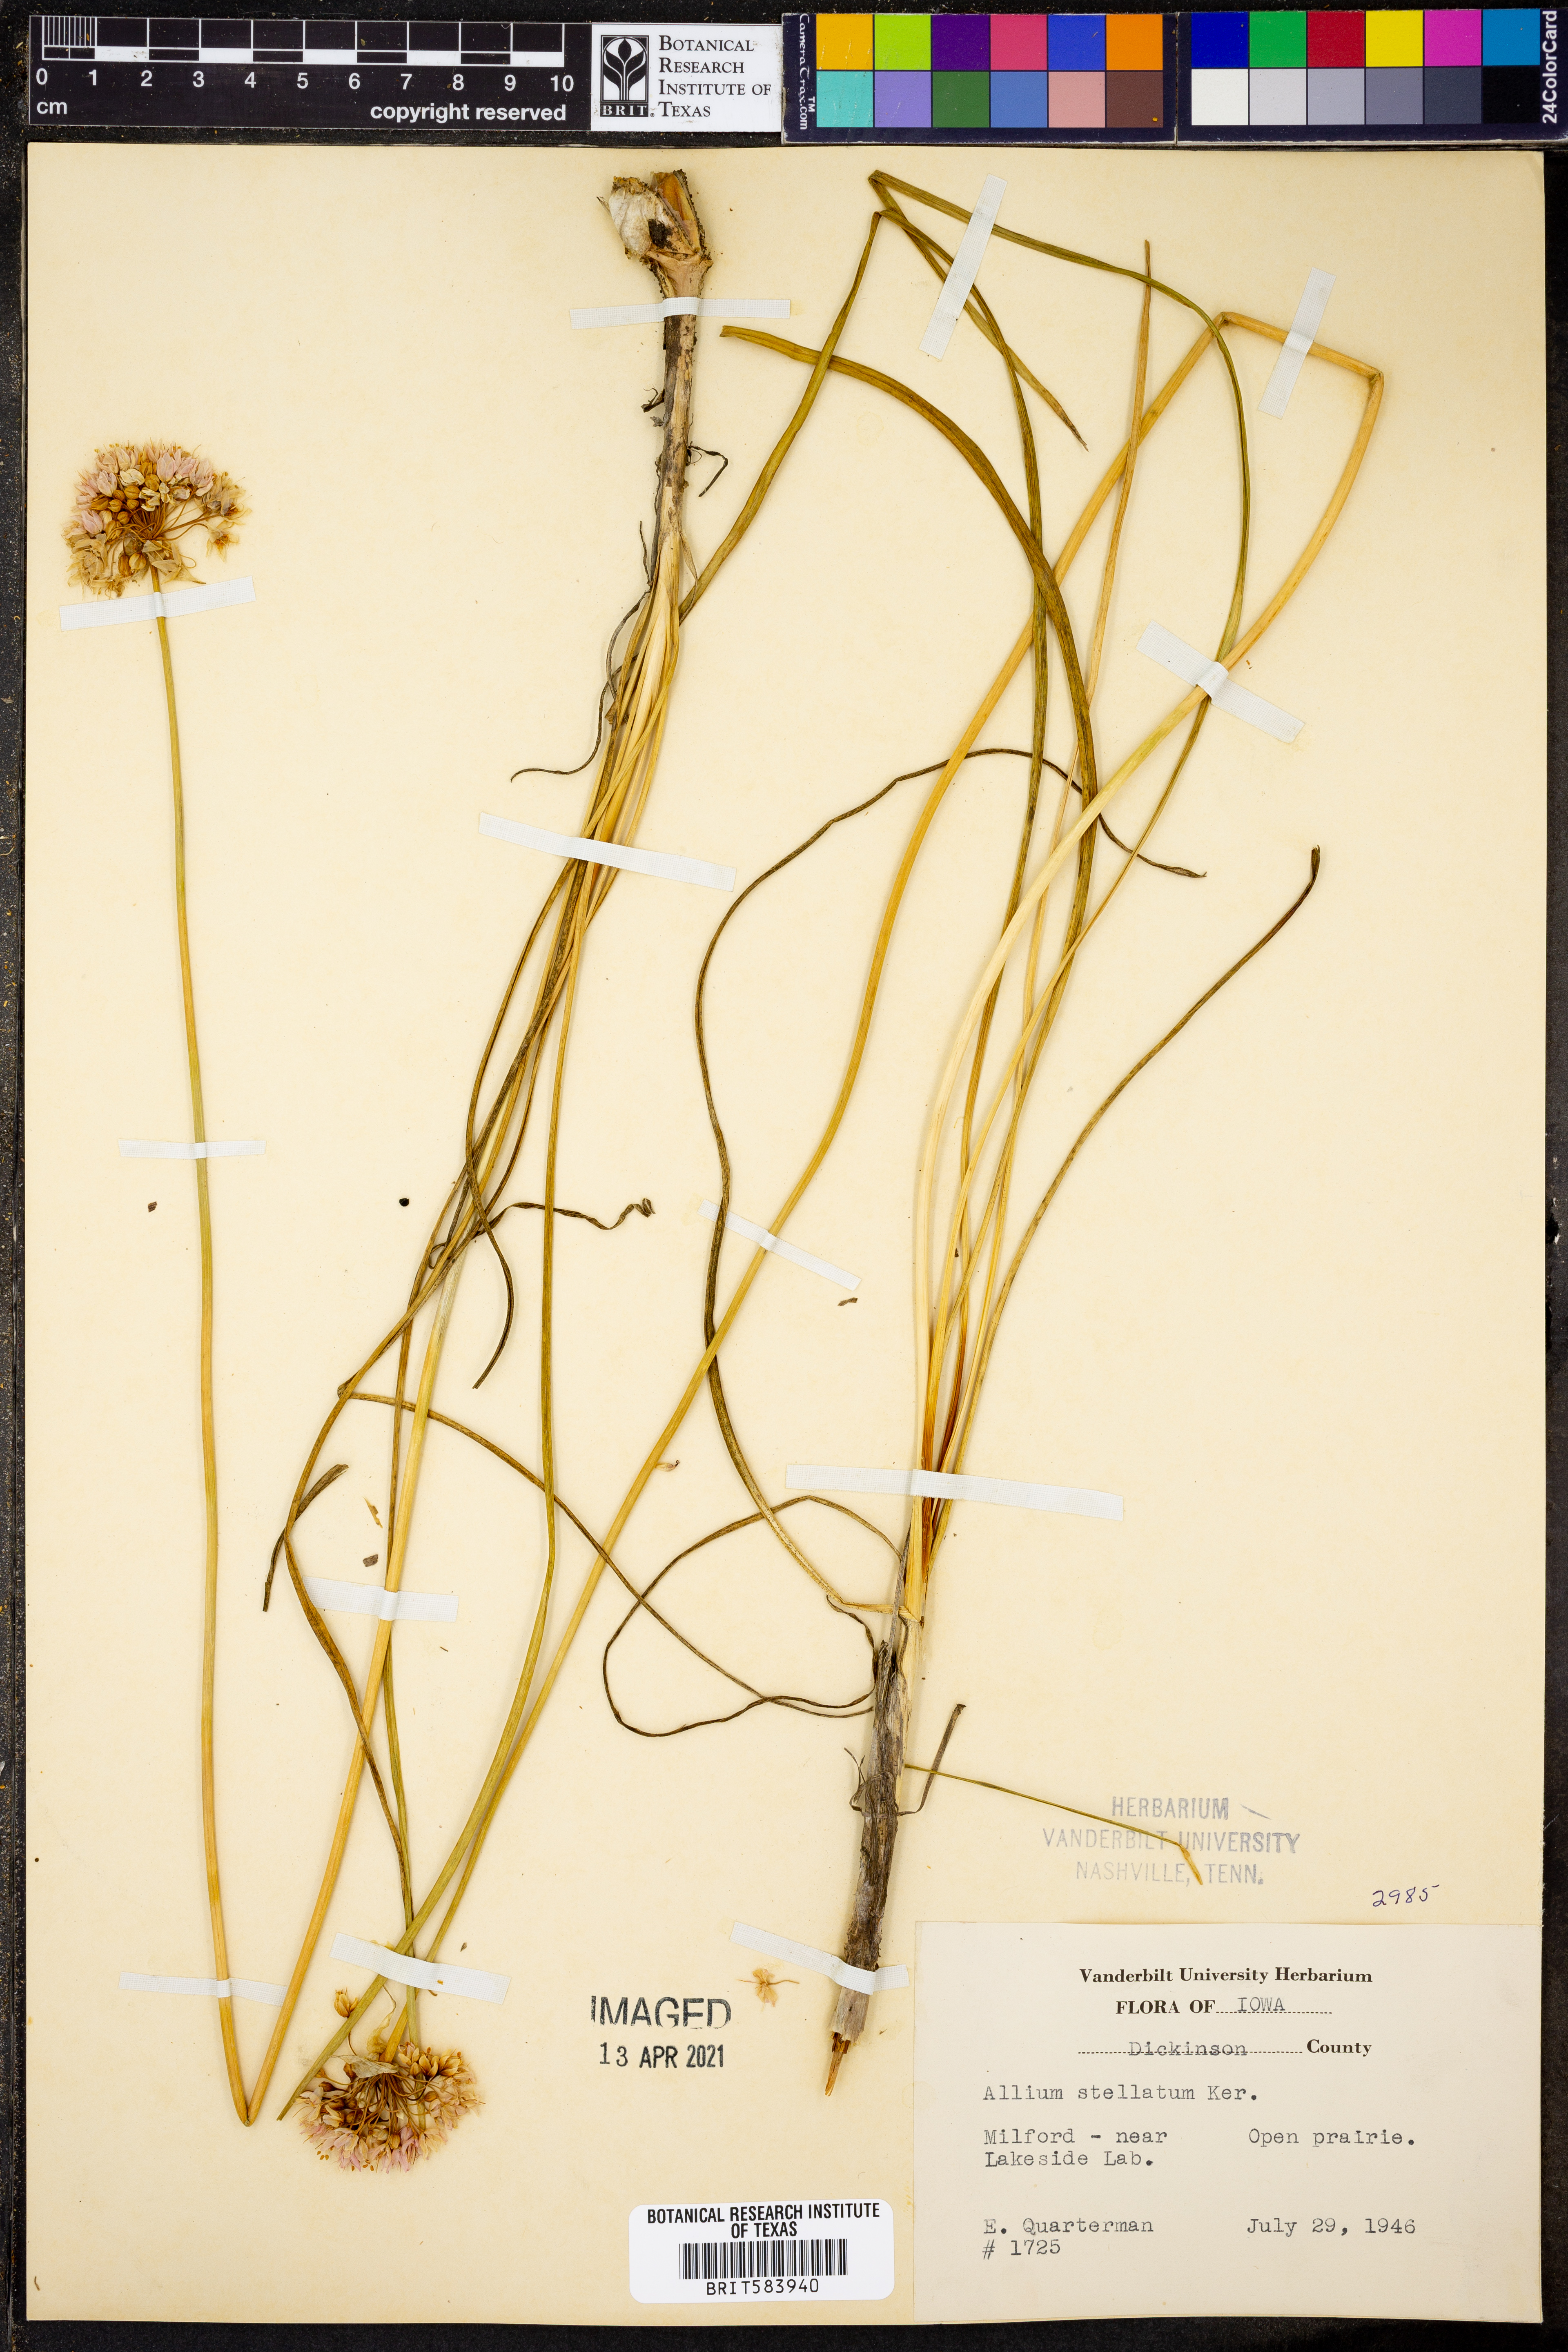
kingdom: Plantae
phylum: Tracheophyta
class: Liliopsida
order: Asparagales
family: Amaryllidaceae
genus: Allium
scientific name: Allium stellatum
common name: Autumn onion
